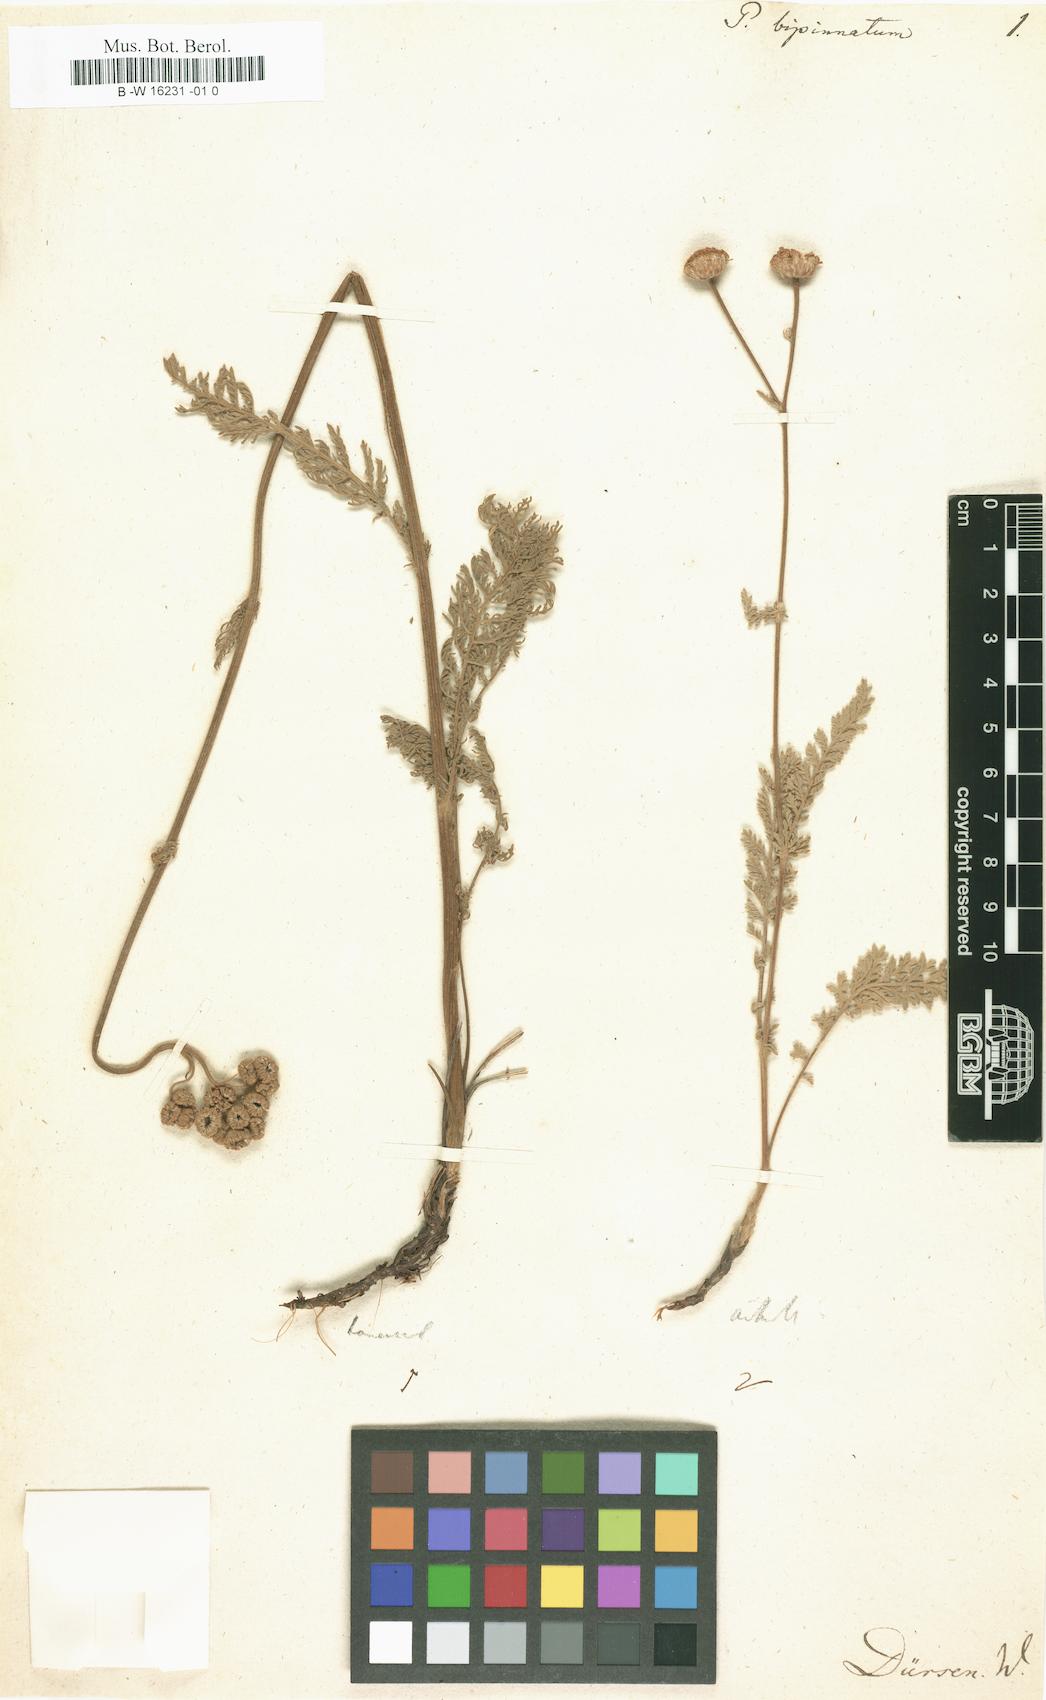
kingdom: Plantae
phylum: Tracheophyta
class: Magnoliopsida
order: Asterales
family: Asteraceae
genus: Tanacetum
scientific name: Tanacetum bipinnatum
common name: Dwarf tansy
